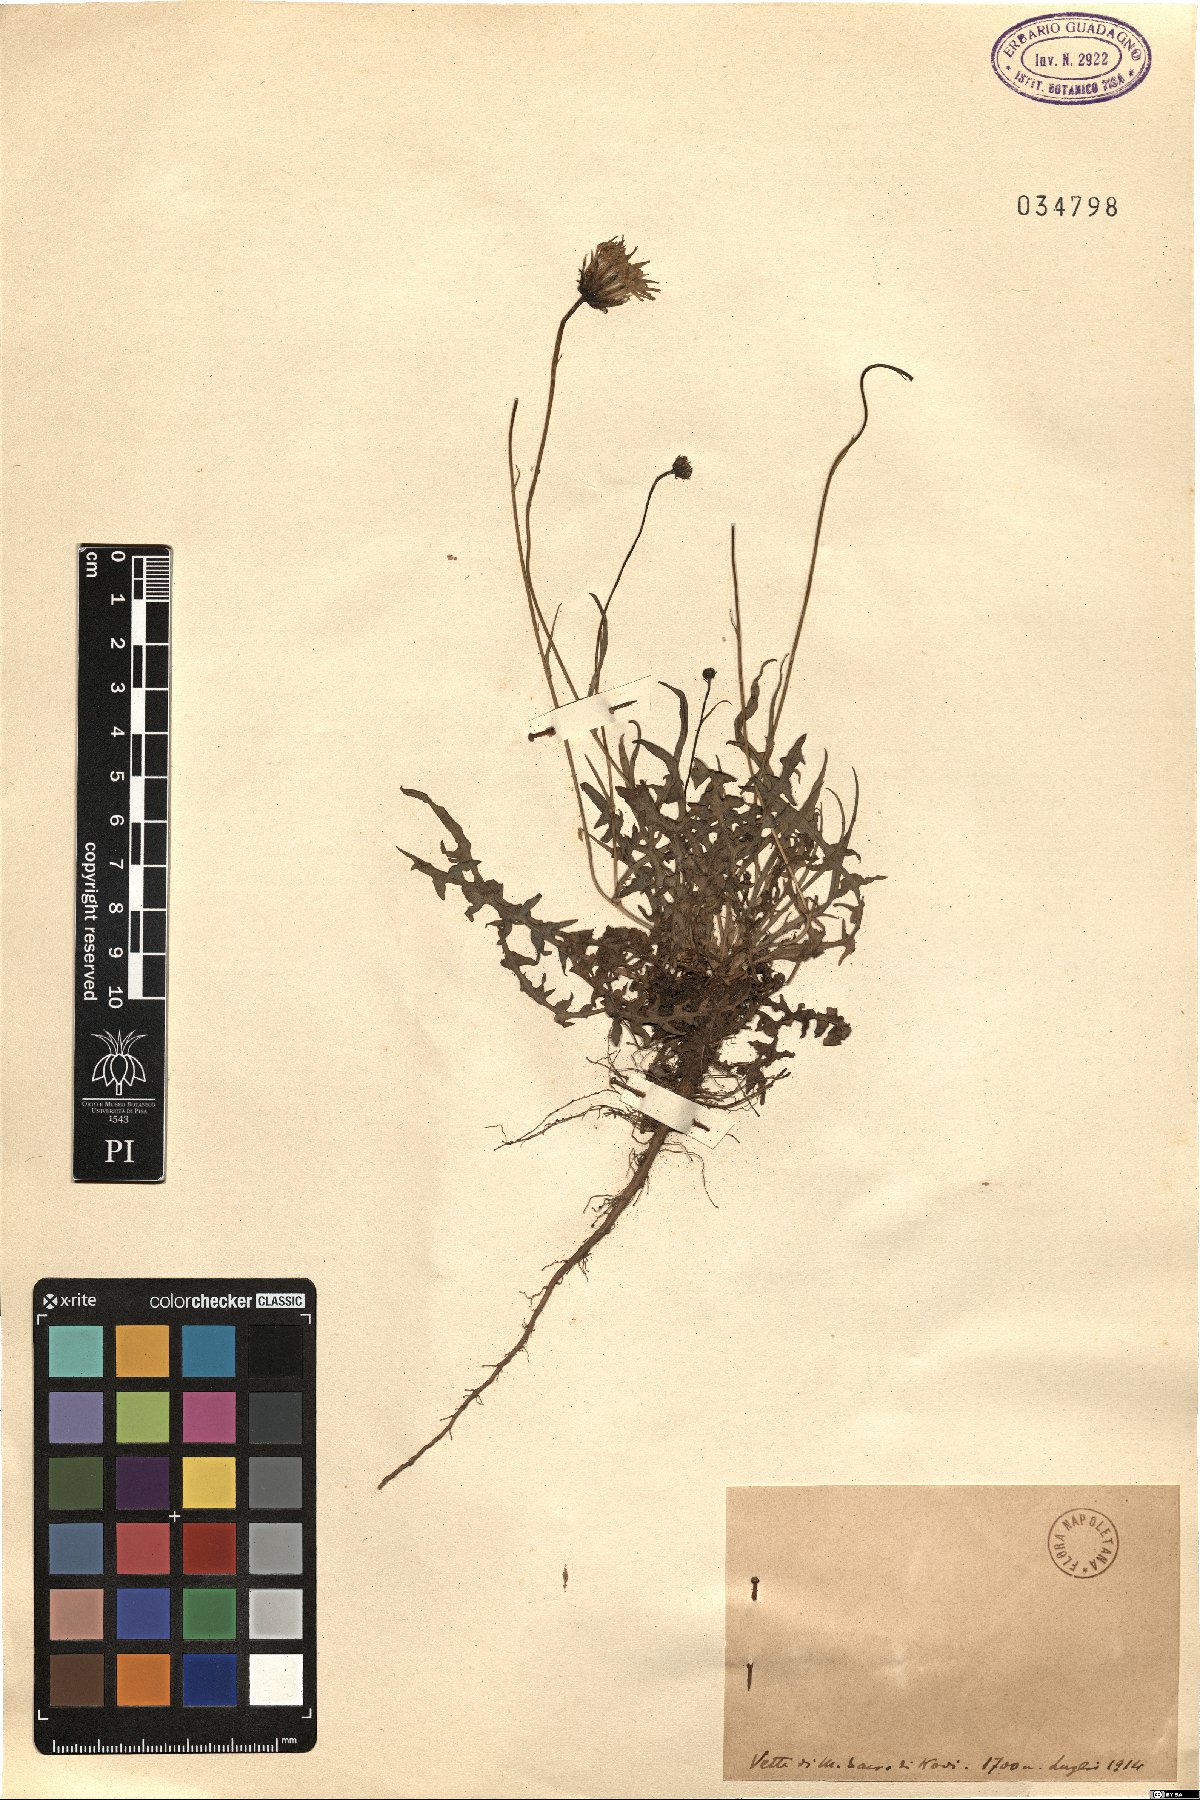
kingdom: Plantae
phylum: Tracheophyta
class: Magnoliopsida
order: Asterales
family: Asteraceae
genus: Hypochaeris
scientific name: Hypochaeris
